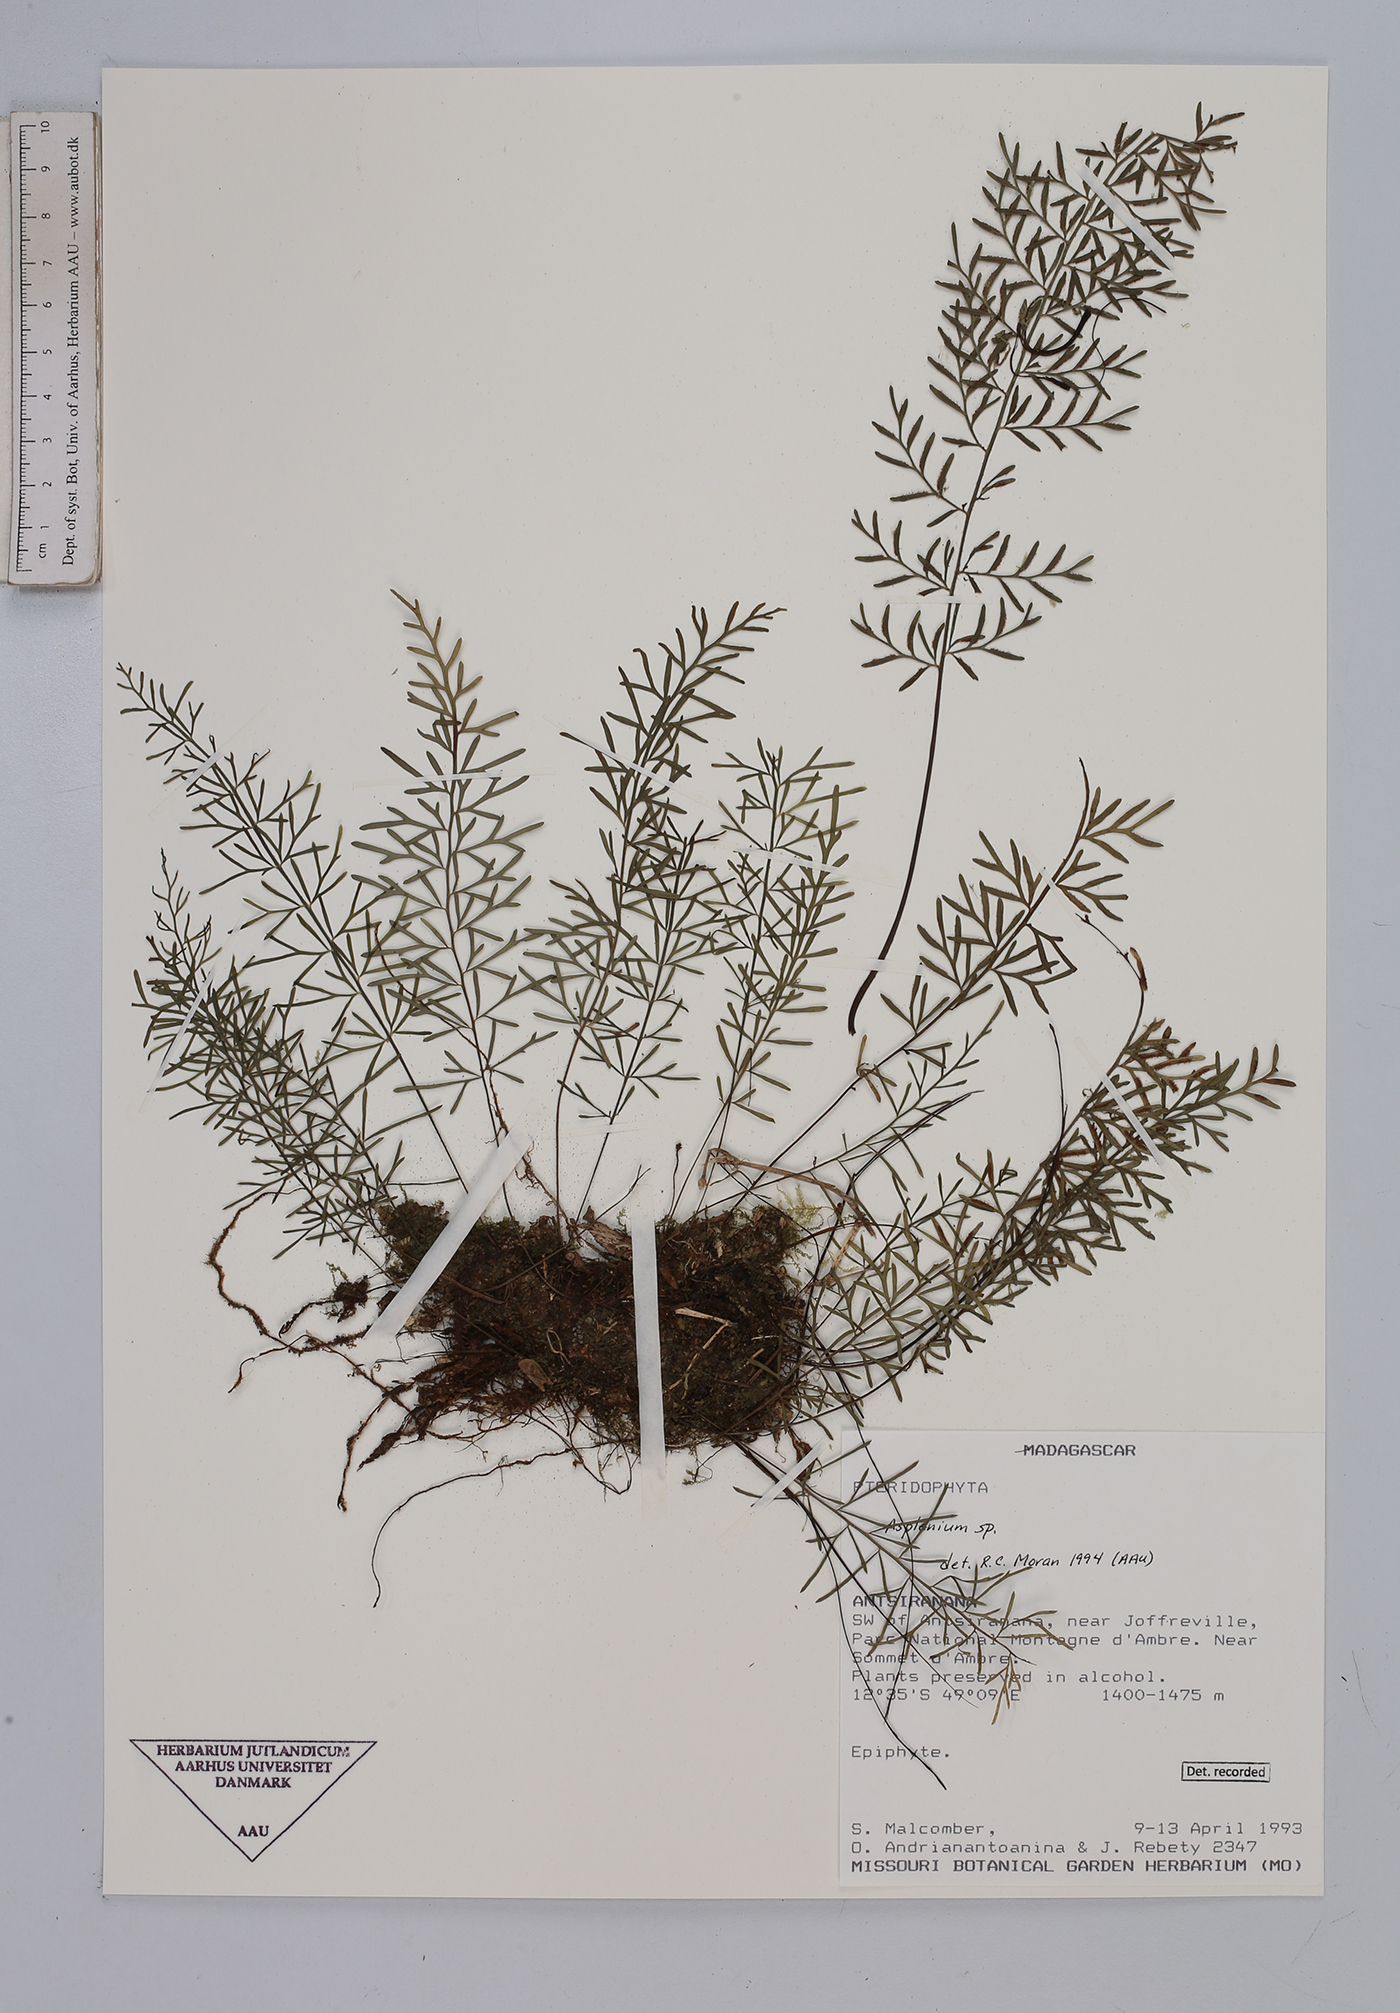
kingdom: Plantae
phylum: Tracheophyta
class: Polypodiopsida
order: Polypodiales
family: Aspleniaceae
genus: Asplenium
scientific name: Asplenium
